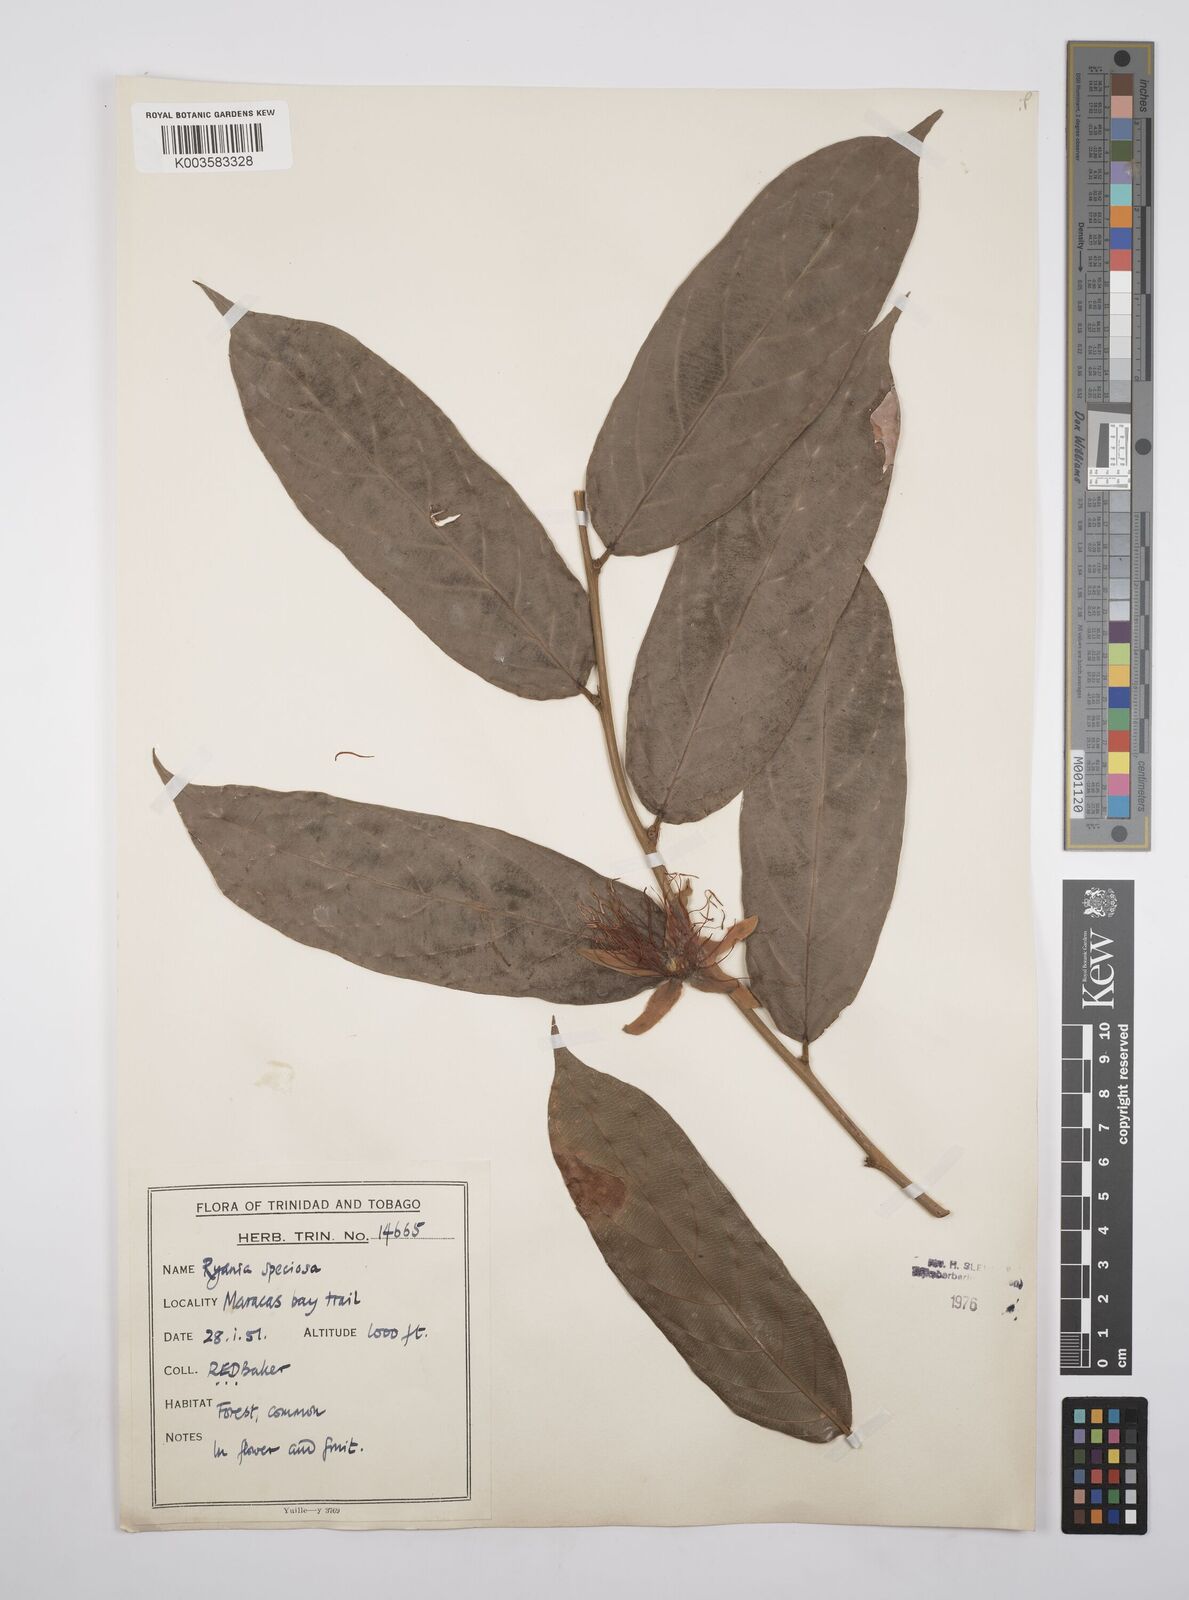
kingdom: Plantae
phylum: Tracheophyta
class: Magnoliopsida
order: Malpighiales
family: Salicaceae
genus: Ryania
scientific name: Ryania speciosa
